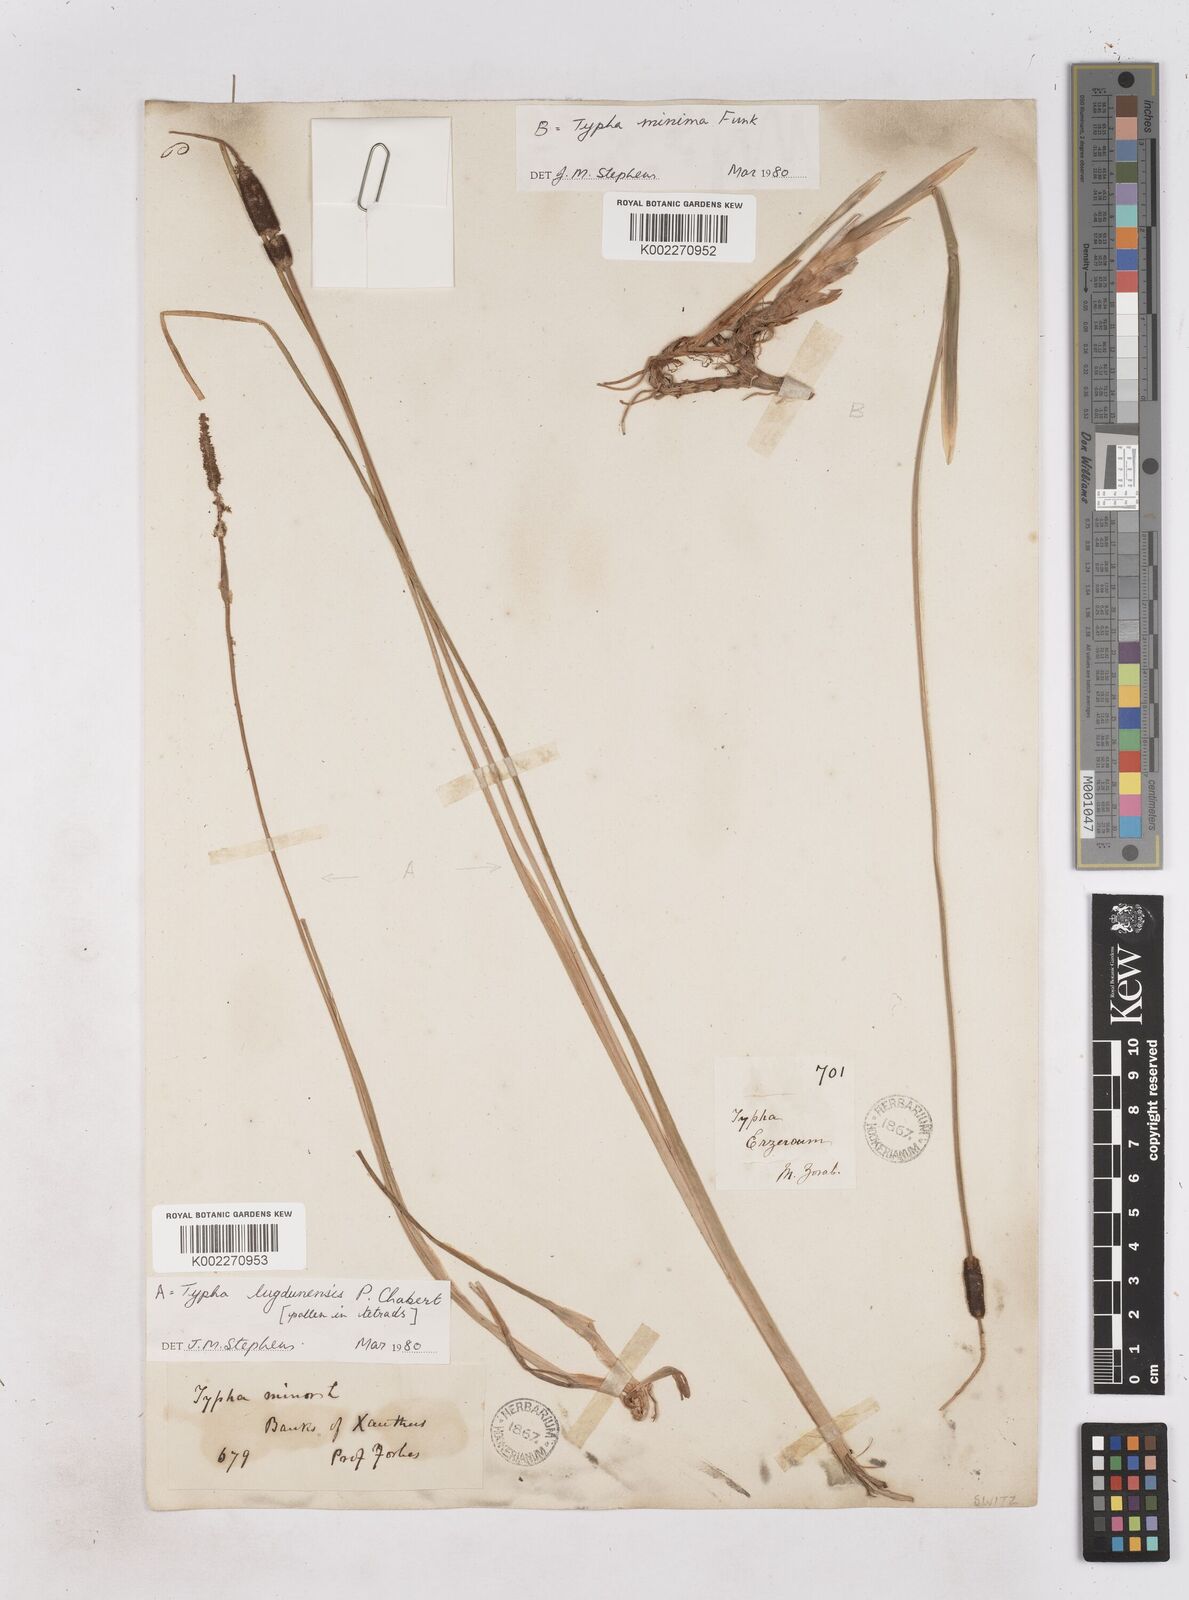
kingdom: Plantae
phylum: Tracheophyta
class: Liliopsida
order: Poales
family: Typhaceae
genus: Typha
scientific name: Typha lugdunensis
